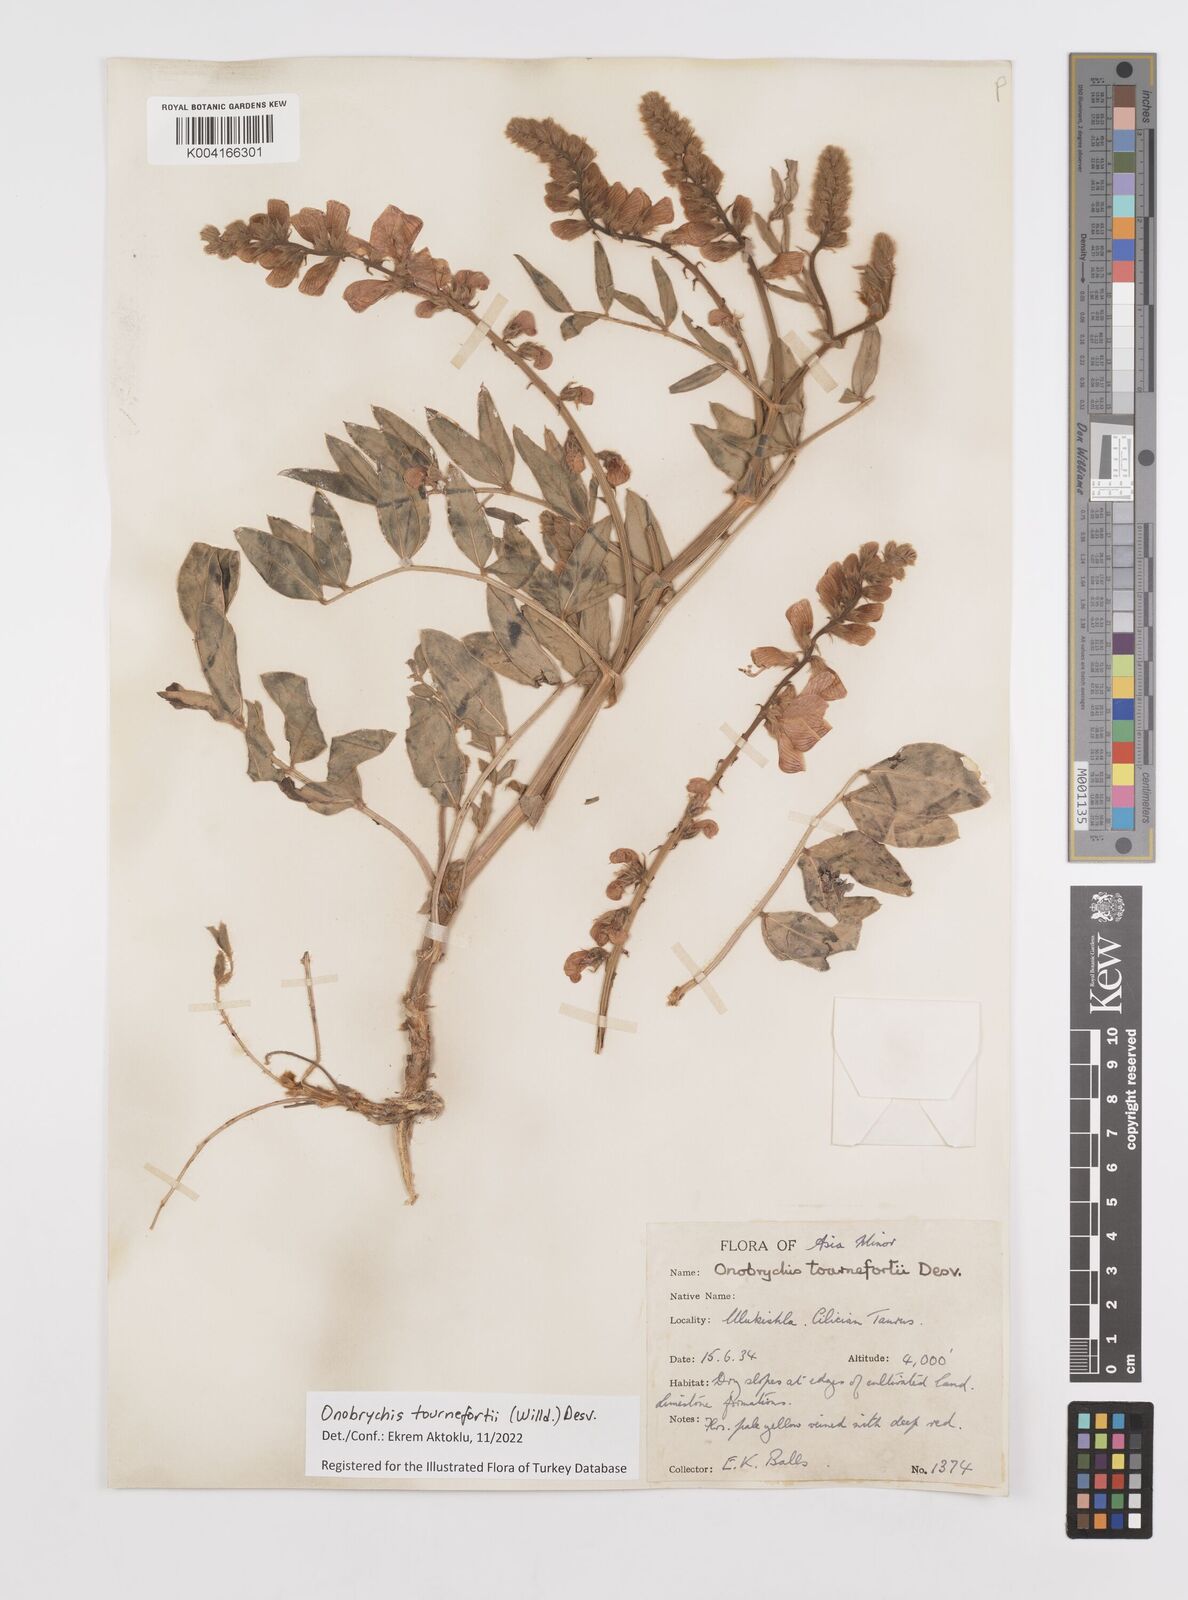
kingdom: Plantae
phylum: Tracheophyta
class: Magnoliopsida
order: Fabales
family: Fabaceae
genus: Onobrychis
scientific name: Onobrychis tournefortii
